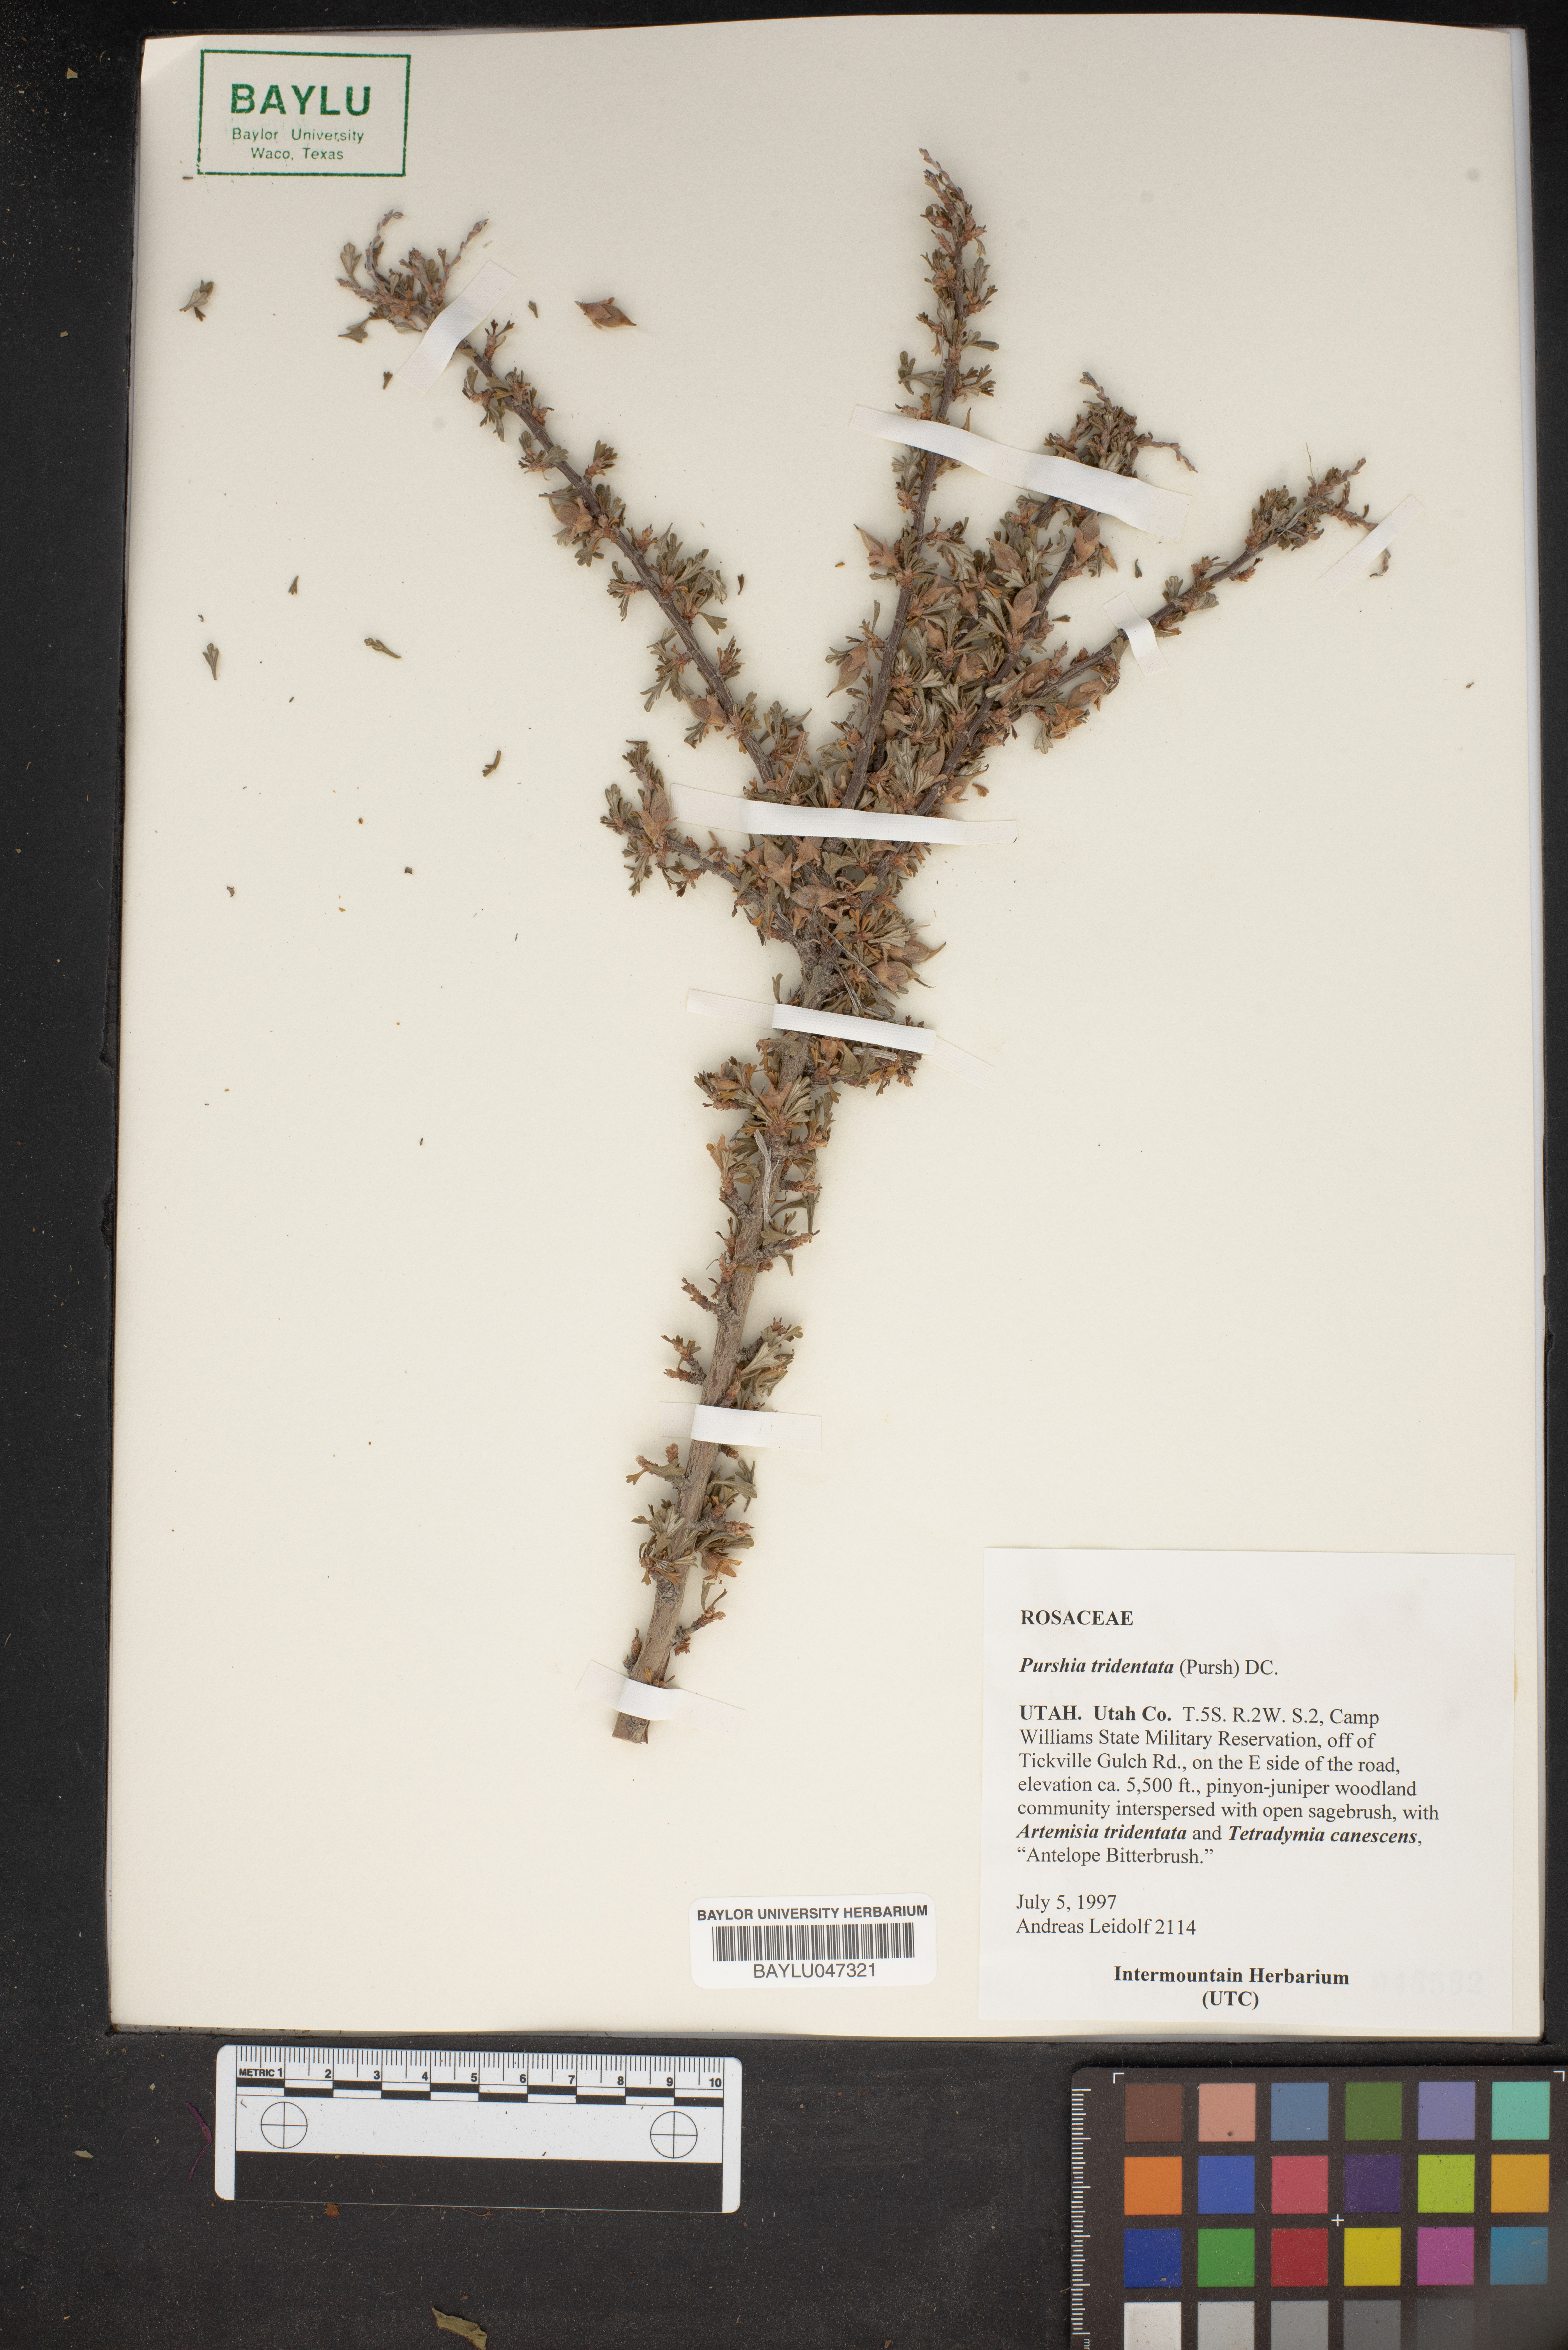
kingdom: Plantae
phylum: Tracheophyta
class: Magnoliopsida
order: Rosales
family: Rosaceae
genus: Purshia
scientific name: Purshia tridentata
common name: Antelope bitterbrush
